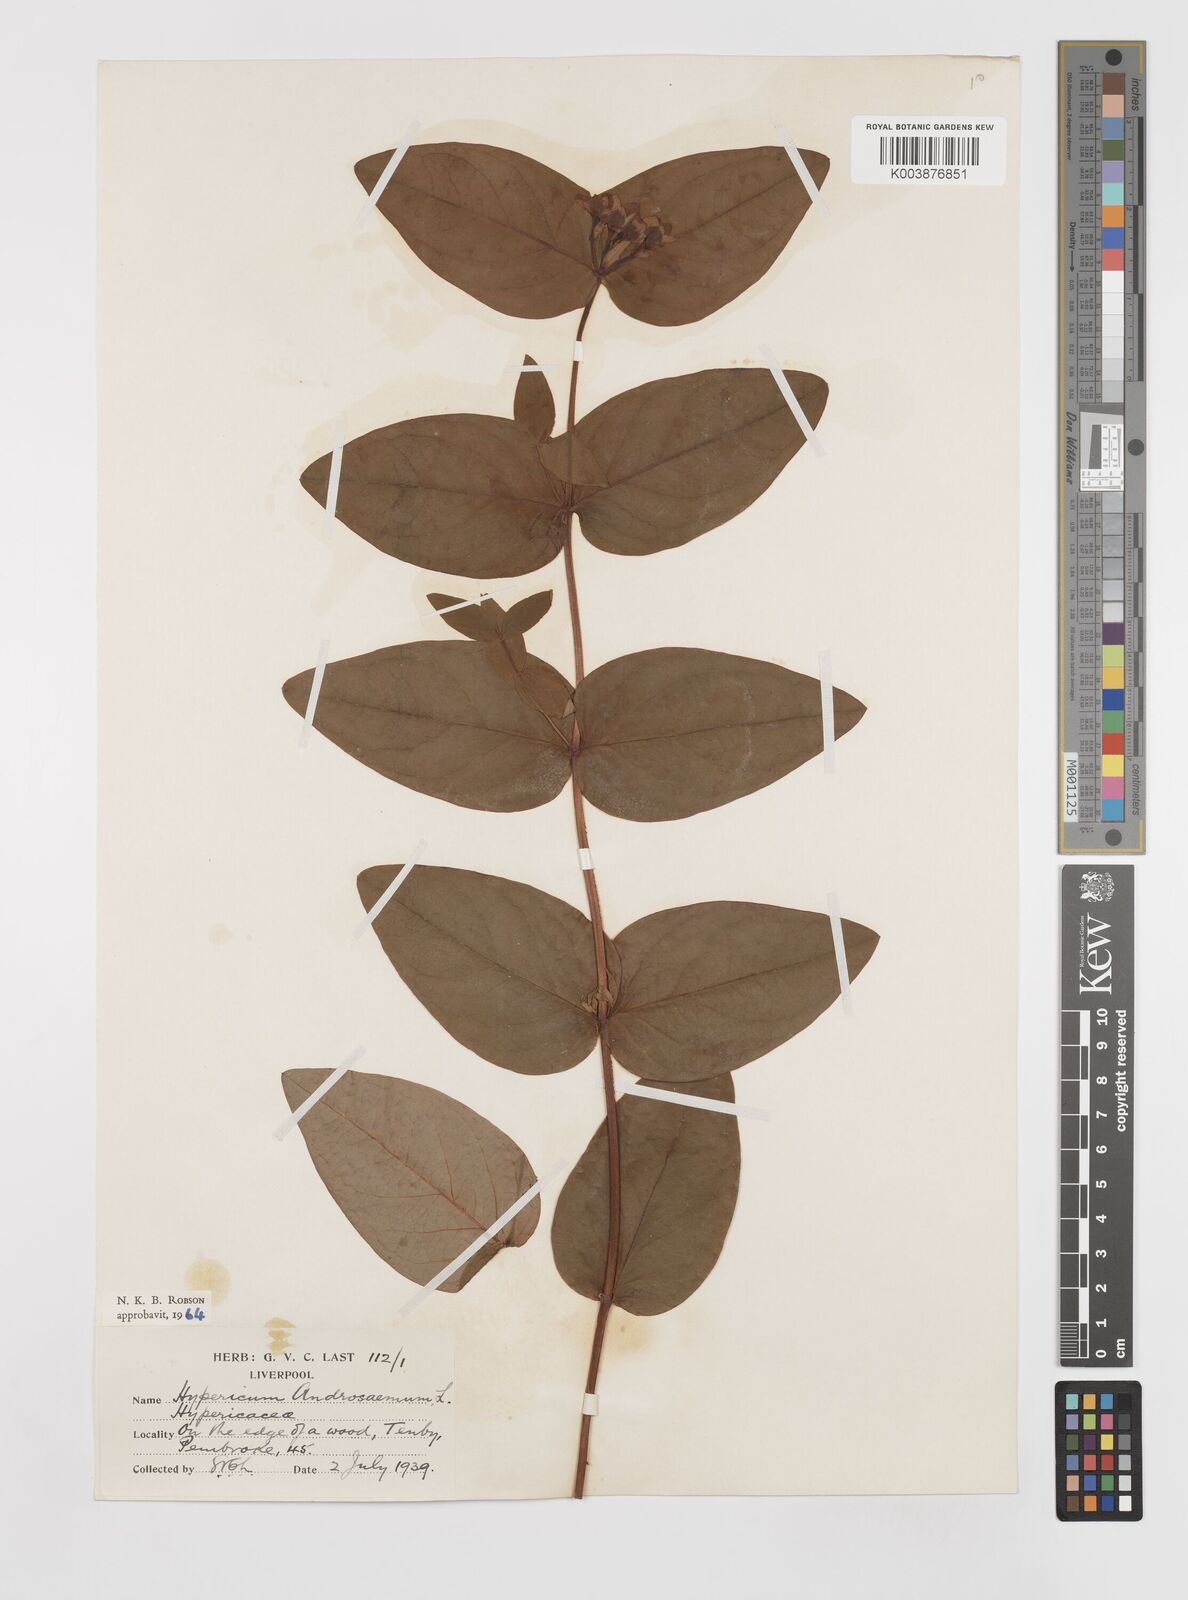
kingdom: Plantae
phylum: Tracheophyta
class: Magnoliopsida
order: Malpighiales
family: Hypericaceae
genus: Hypericum
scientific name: Hypericum androsaemum
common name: Sweet-amber
